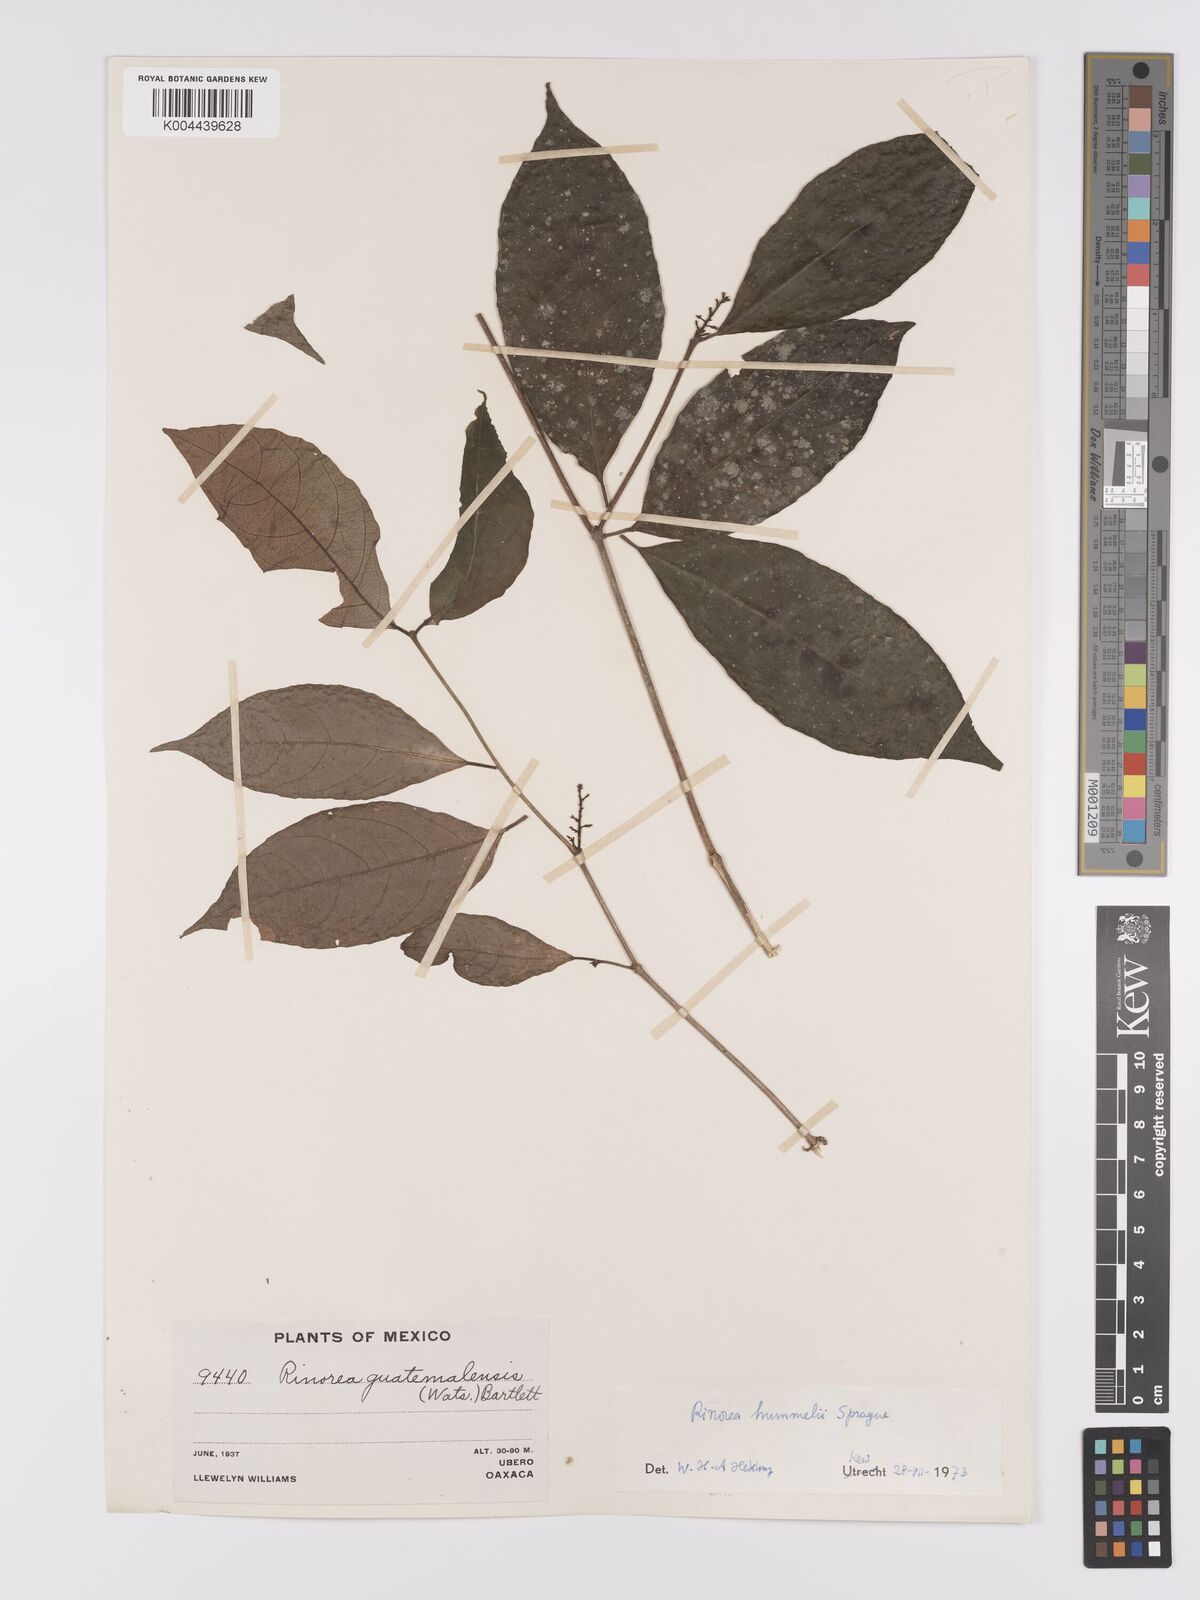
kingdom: Plantae
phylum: Tracheophyta
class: Magnoliopsida
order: Malpighiales
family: Violaceae
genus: Rinorea
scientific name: Rinorea hummelii
